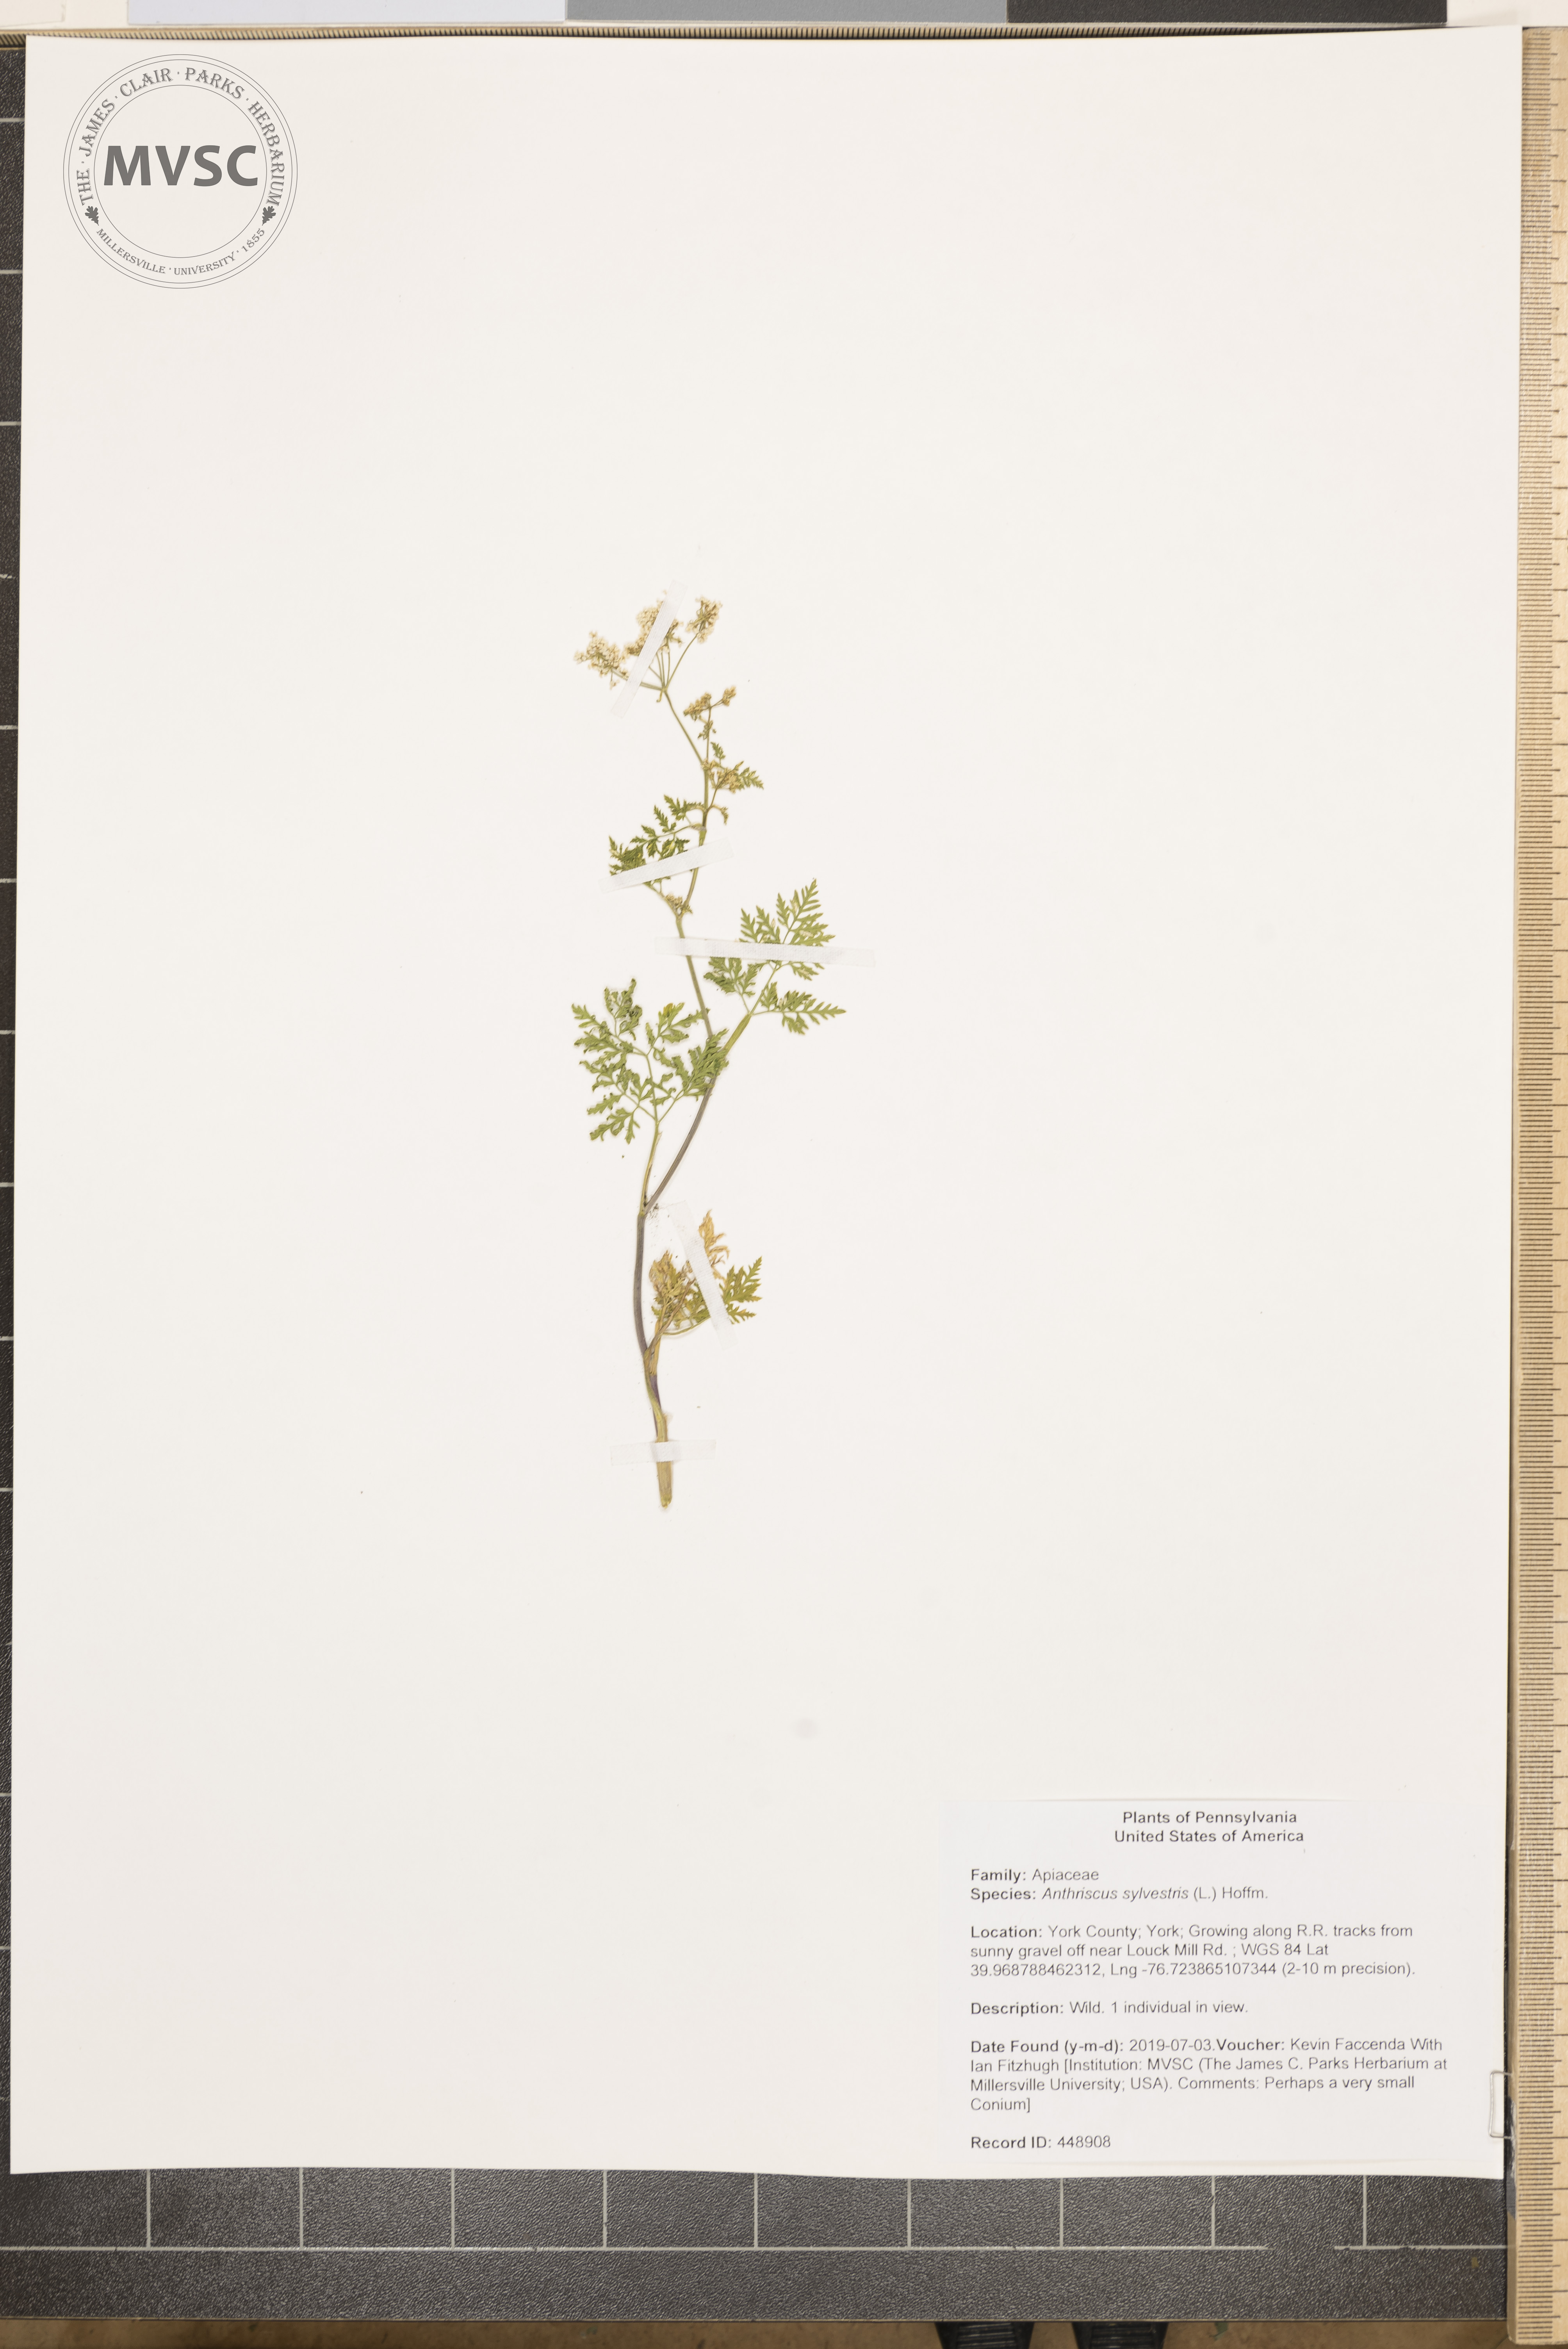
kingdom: Plantae
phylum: Tracheophyta
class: Magnoliopsida
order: Apiales
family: Apiaceae
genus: Anthriscus
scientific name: Anthriscus sylvestris
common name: Cow parsley
